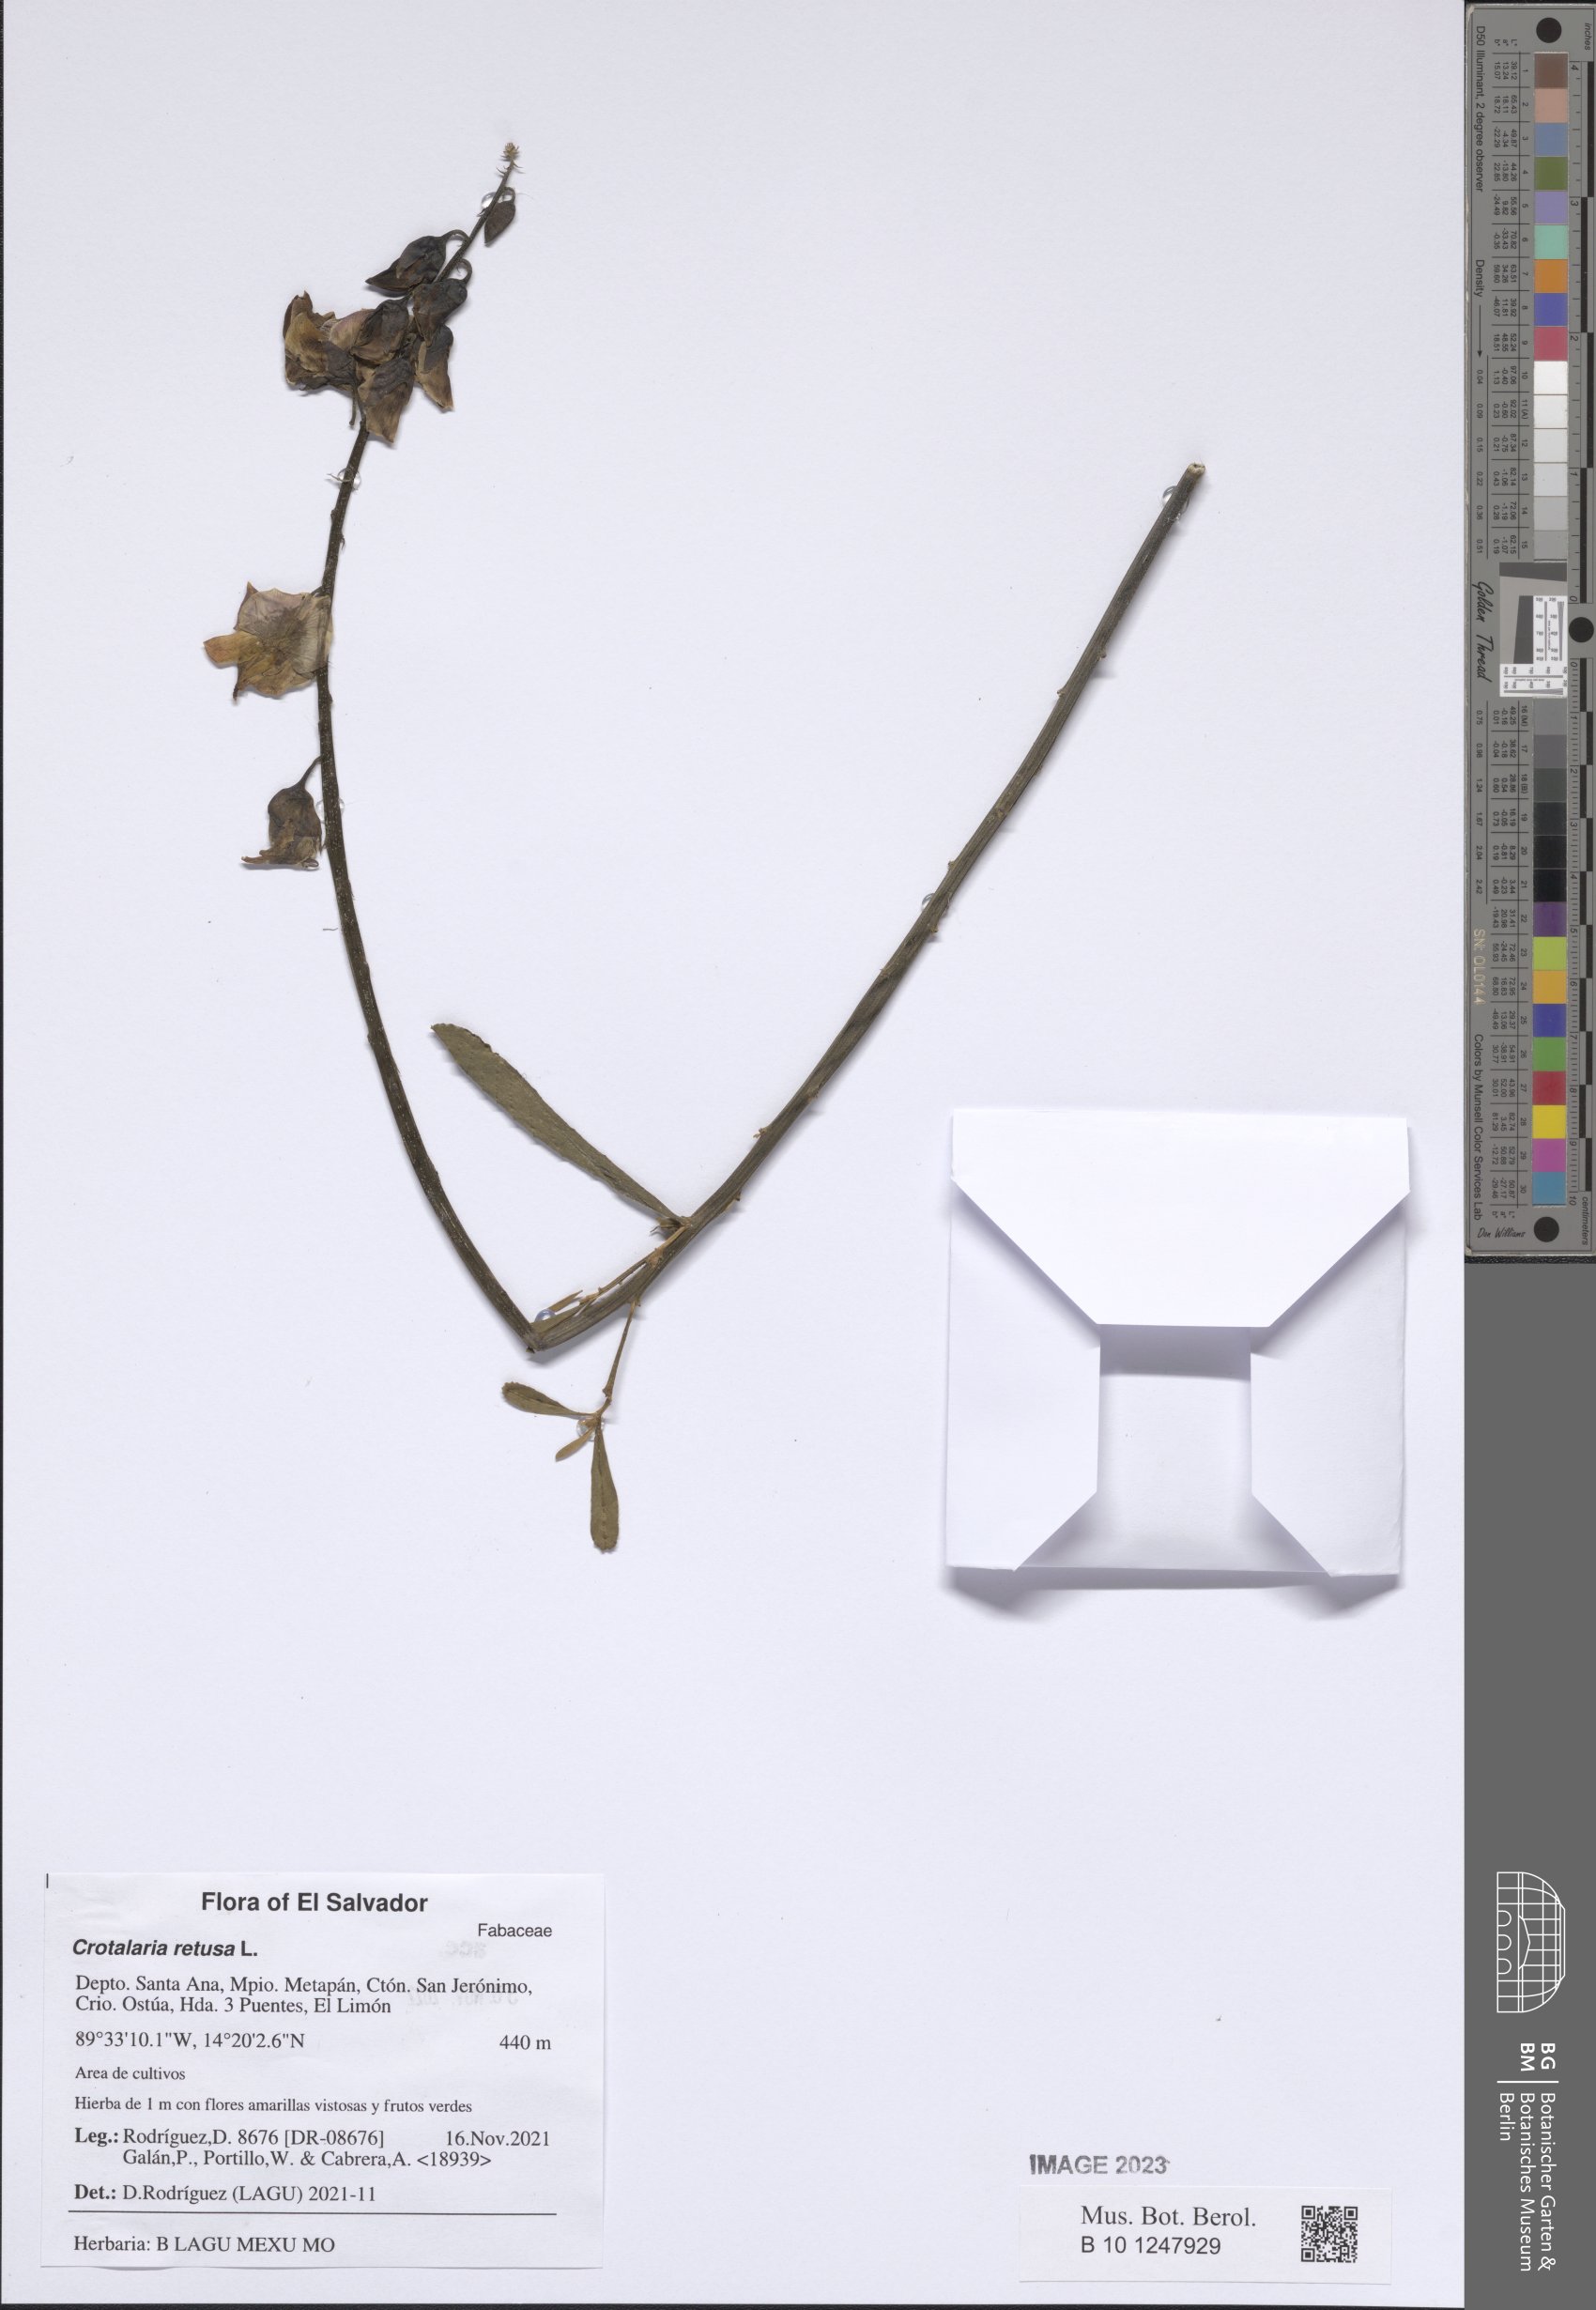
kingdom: Plantae
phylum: Tracheophyta
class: Magnoliopsida
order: Fabales
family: Fabaceae
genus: Crotalaria
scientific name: Crotalaria retusa
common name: Rattleweed
